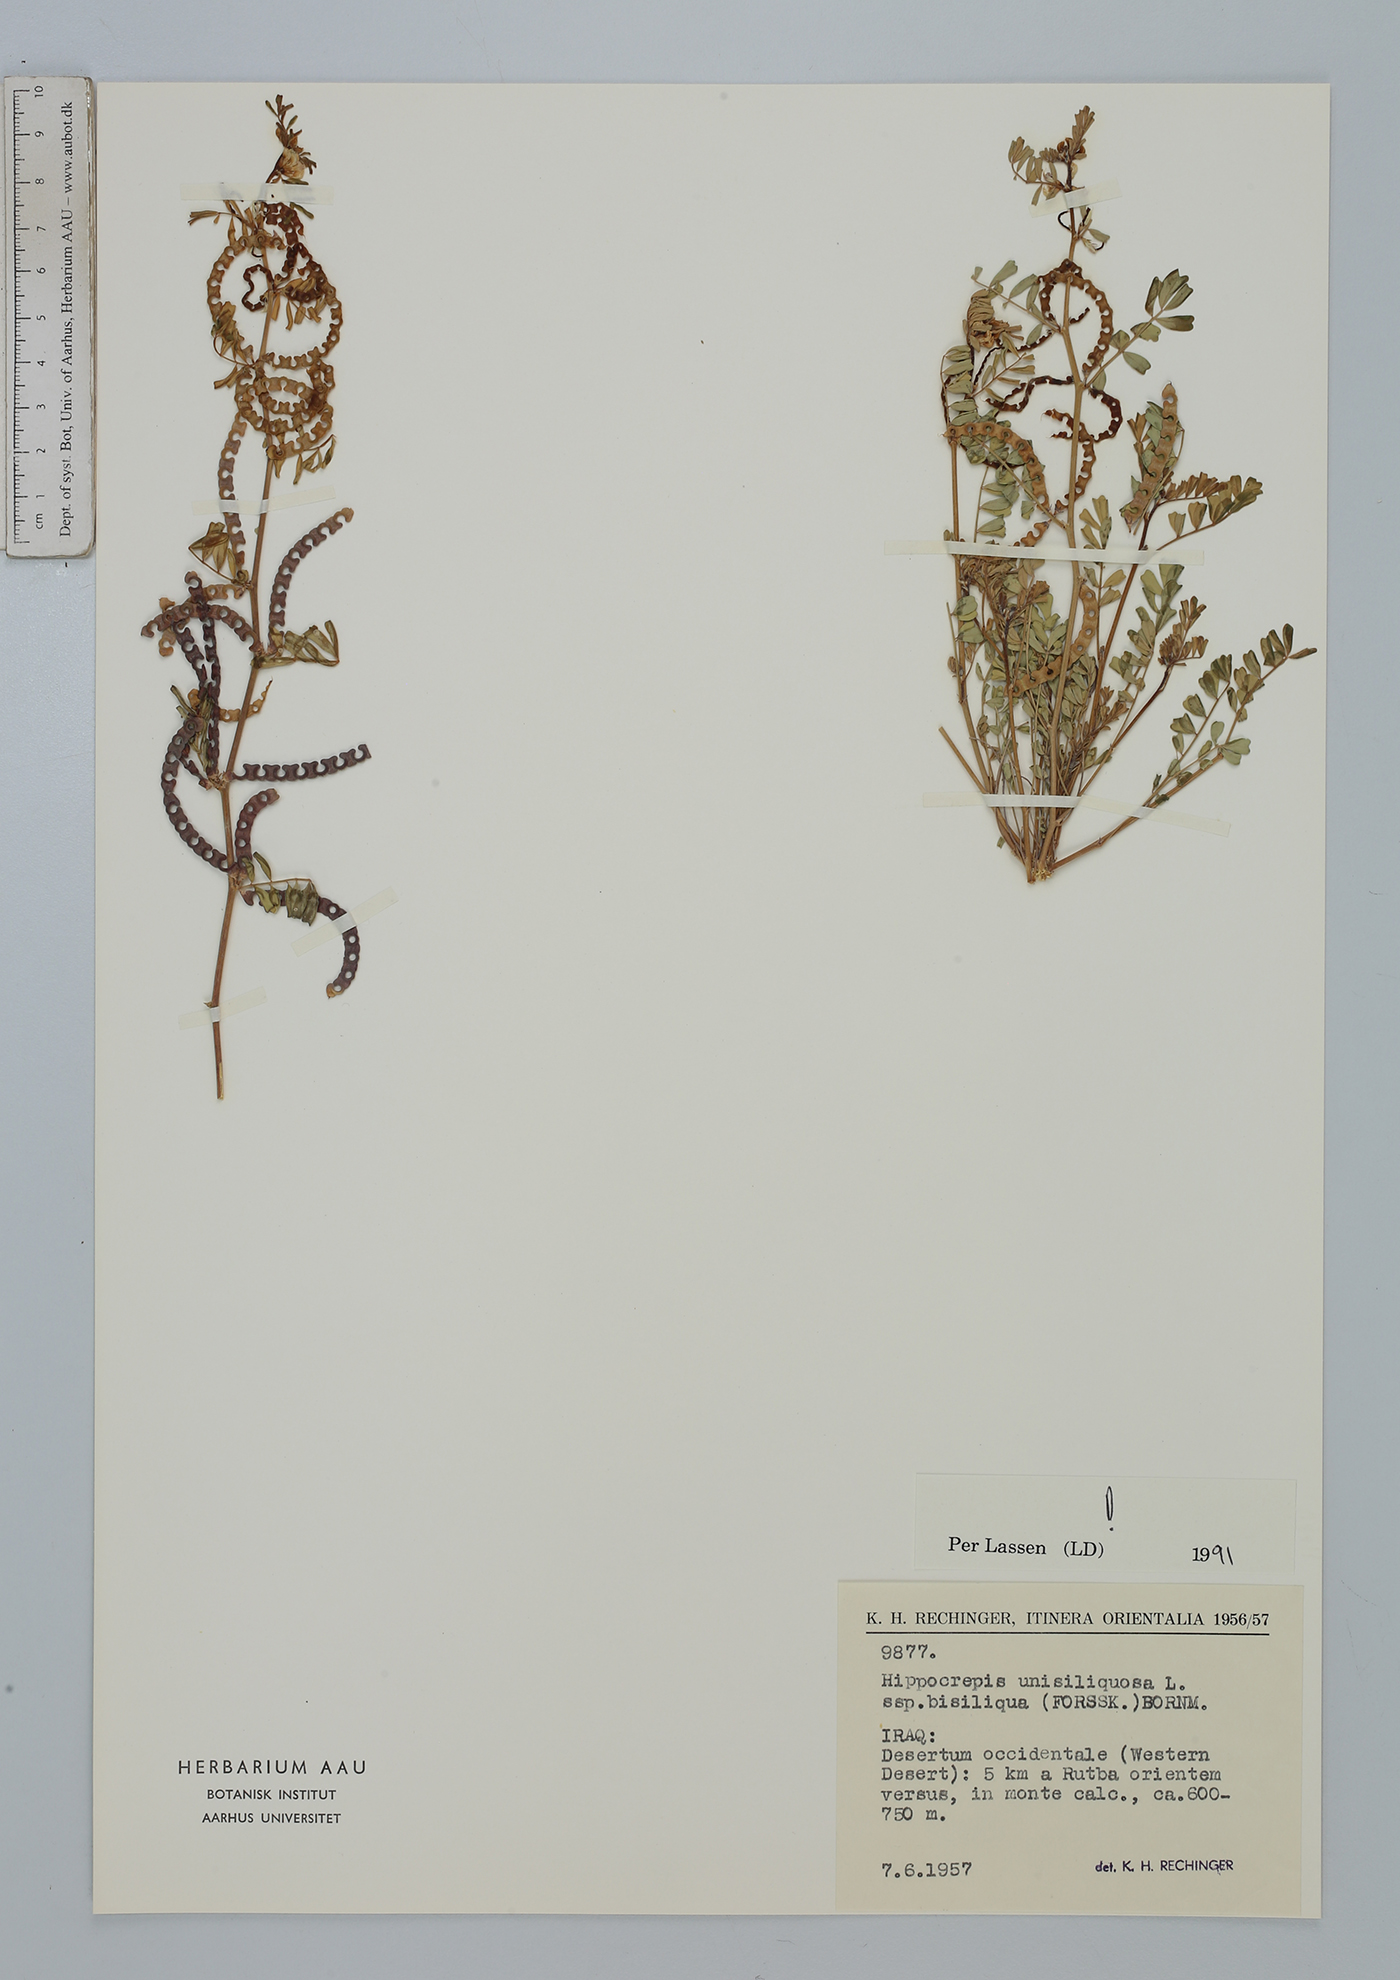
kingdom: Plantae
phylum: Tracheophyta
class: Magnoliopsida
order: Fabales
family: Fabaceae
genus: Hippocrepis
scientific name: Hippocrepis unisiliquosa
